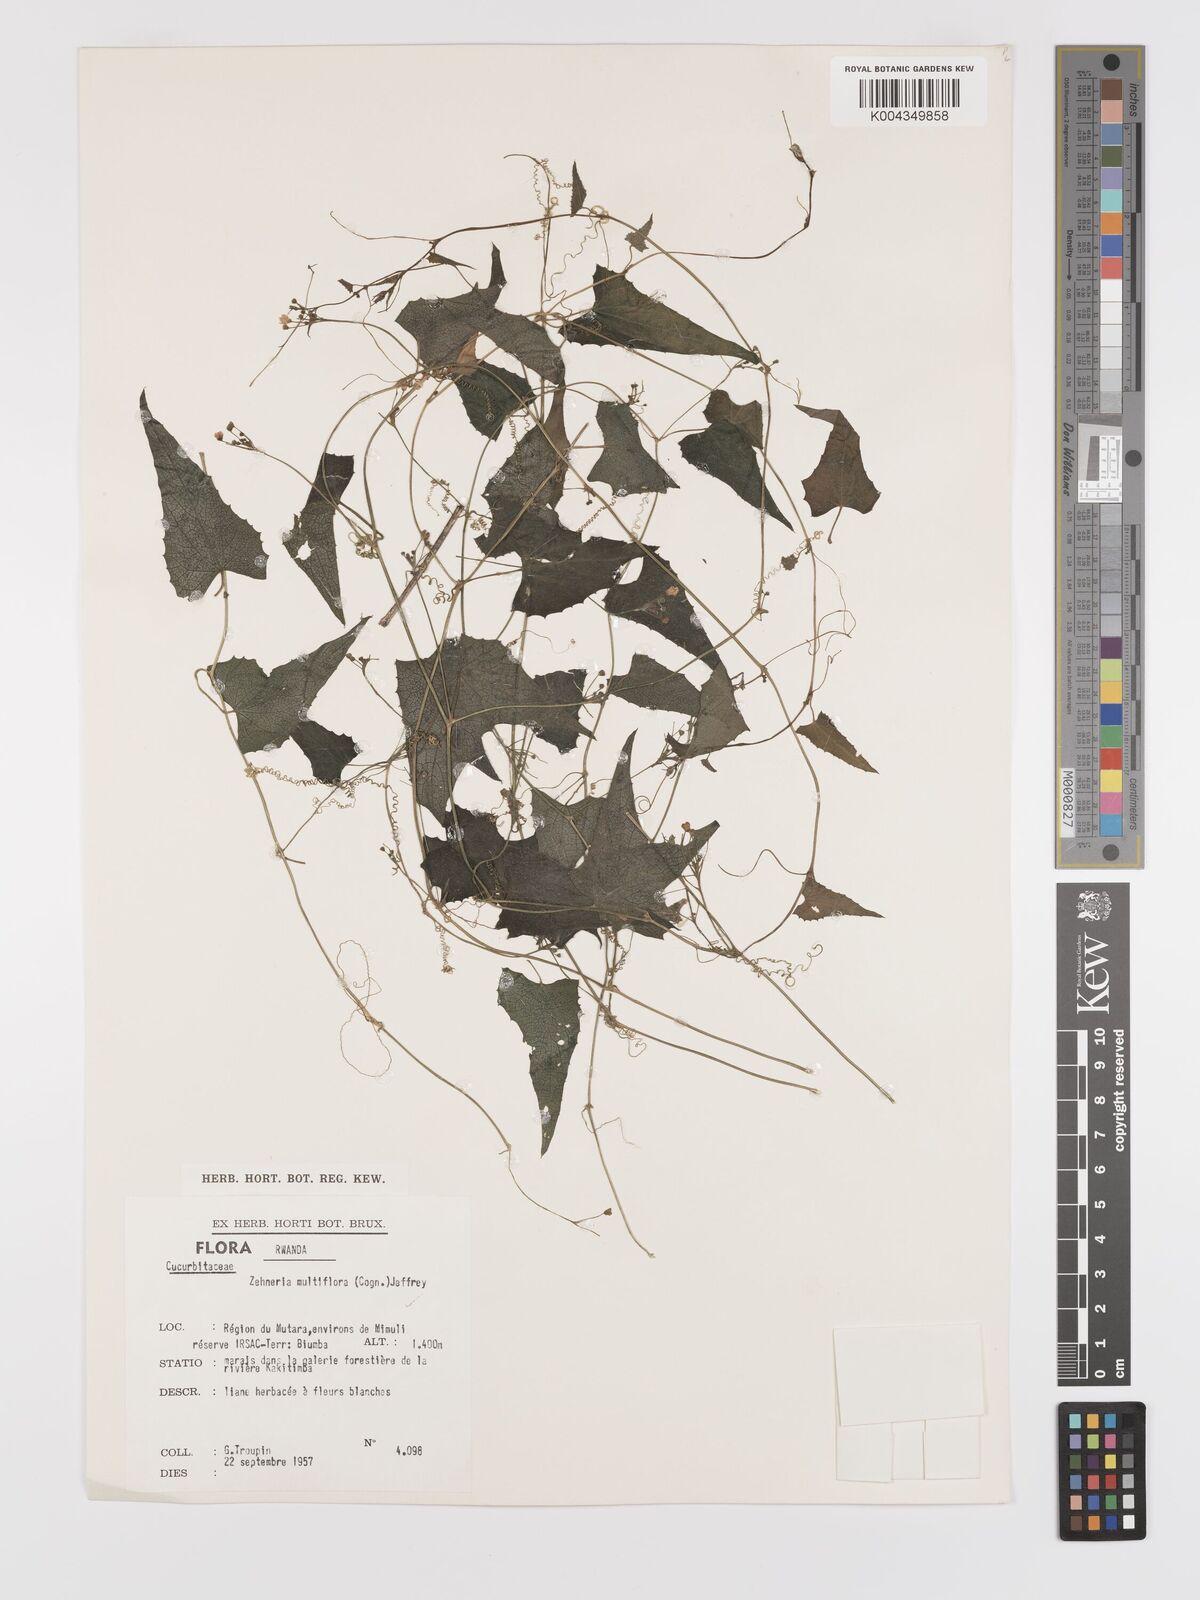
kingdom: Plantae
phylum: Tracheophyta
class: Magnoliopsida
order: Cucurbitales
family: Cucurbitaceae
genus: Zehneria
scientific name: Zehneria minutiflora
